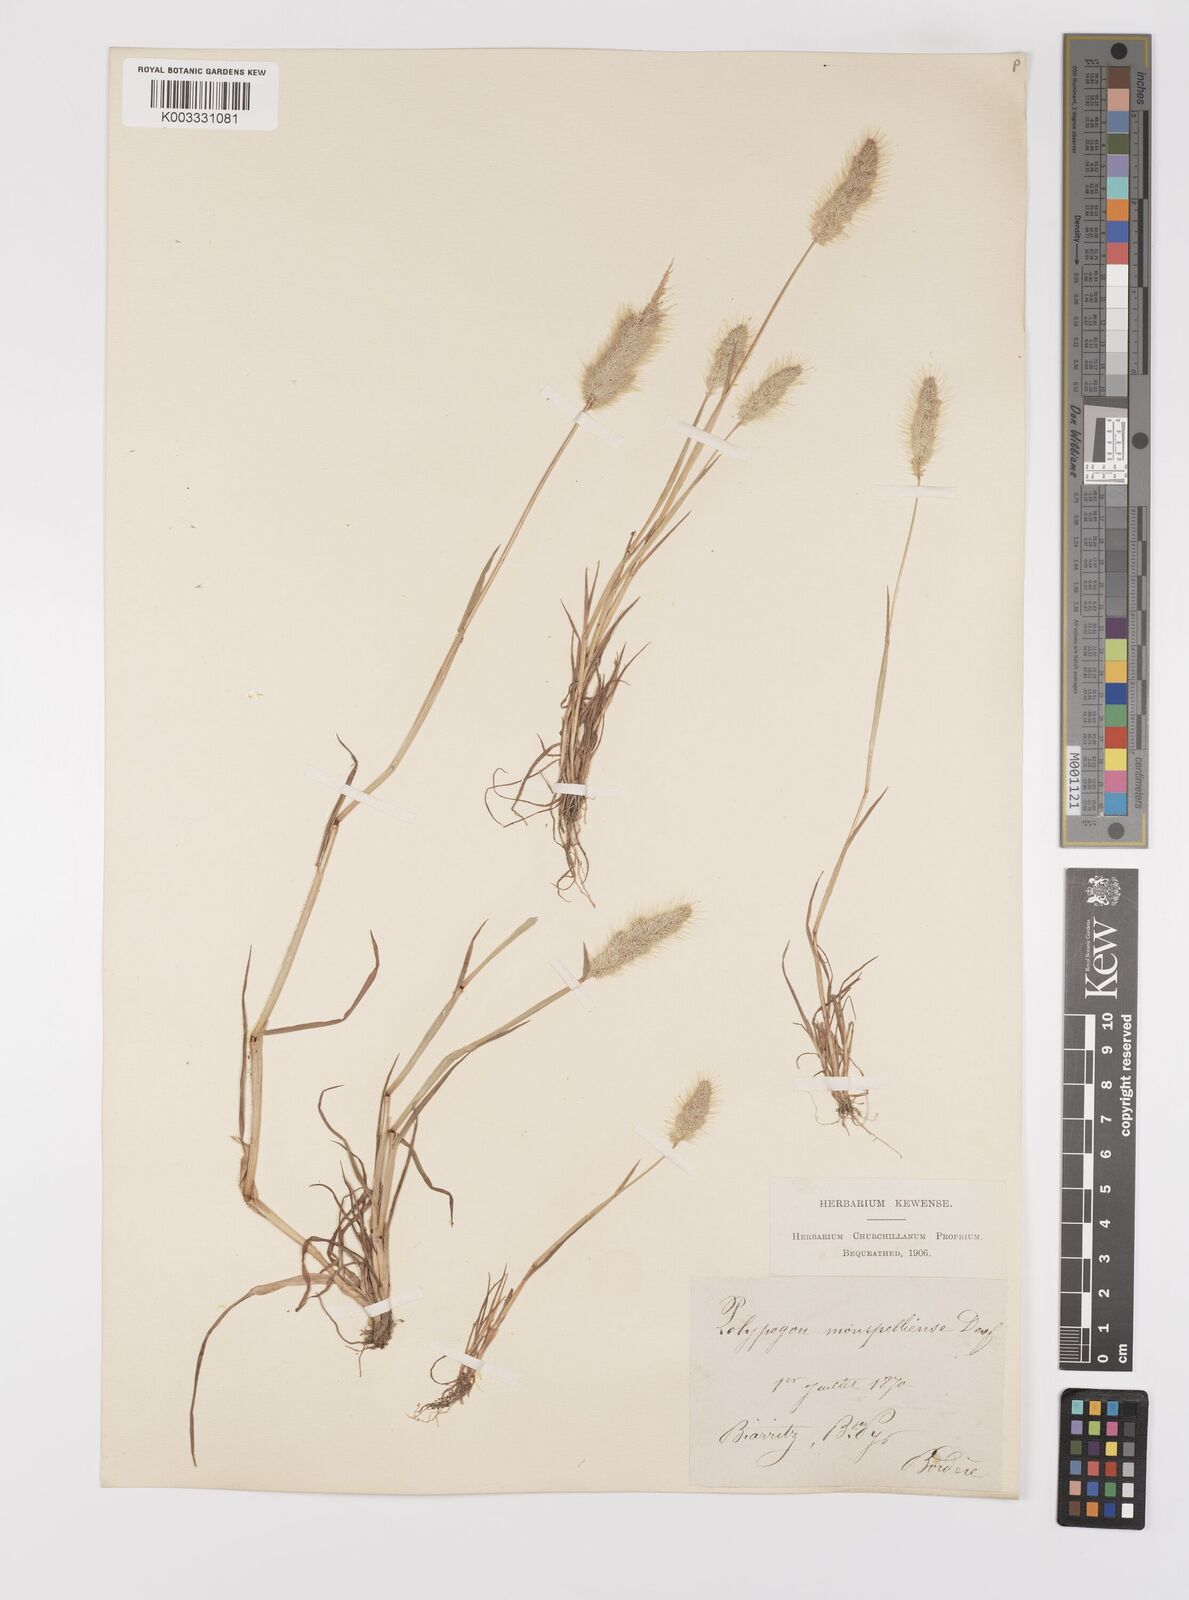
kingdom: Plantae
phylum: Tracheophyta
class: Liliopsida
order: Poales
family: Poaceae
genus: Polypogon
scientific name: Polypogon monspeliensis
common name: Annual rabbitsfoot grass
